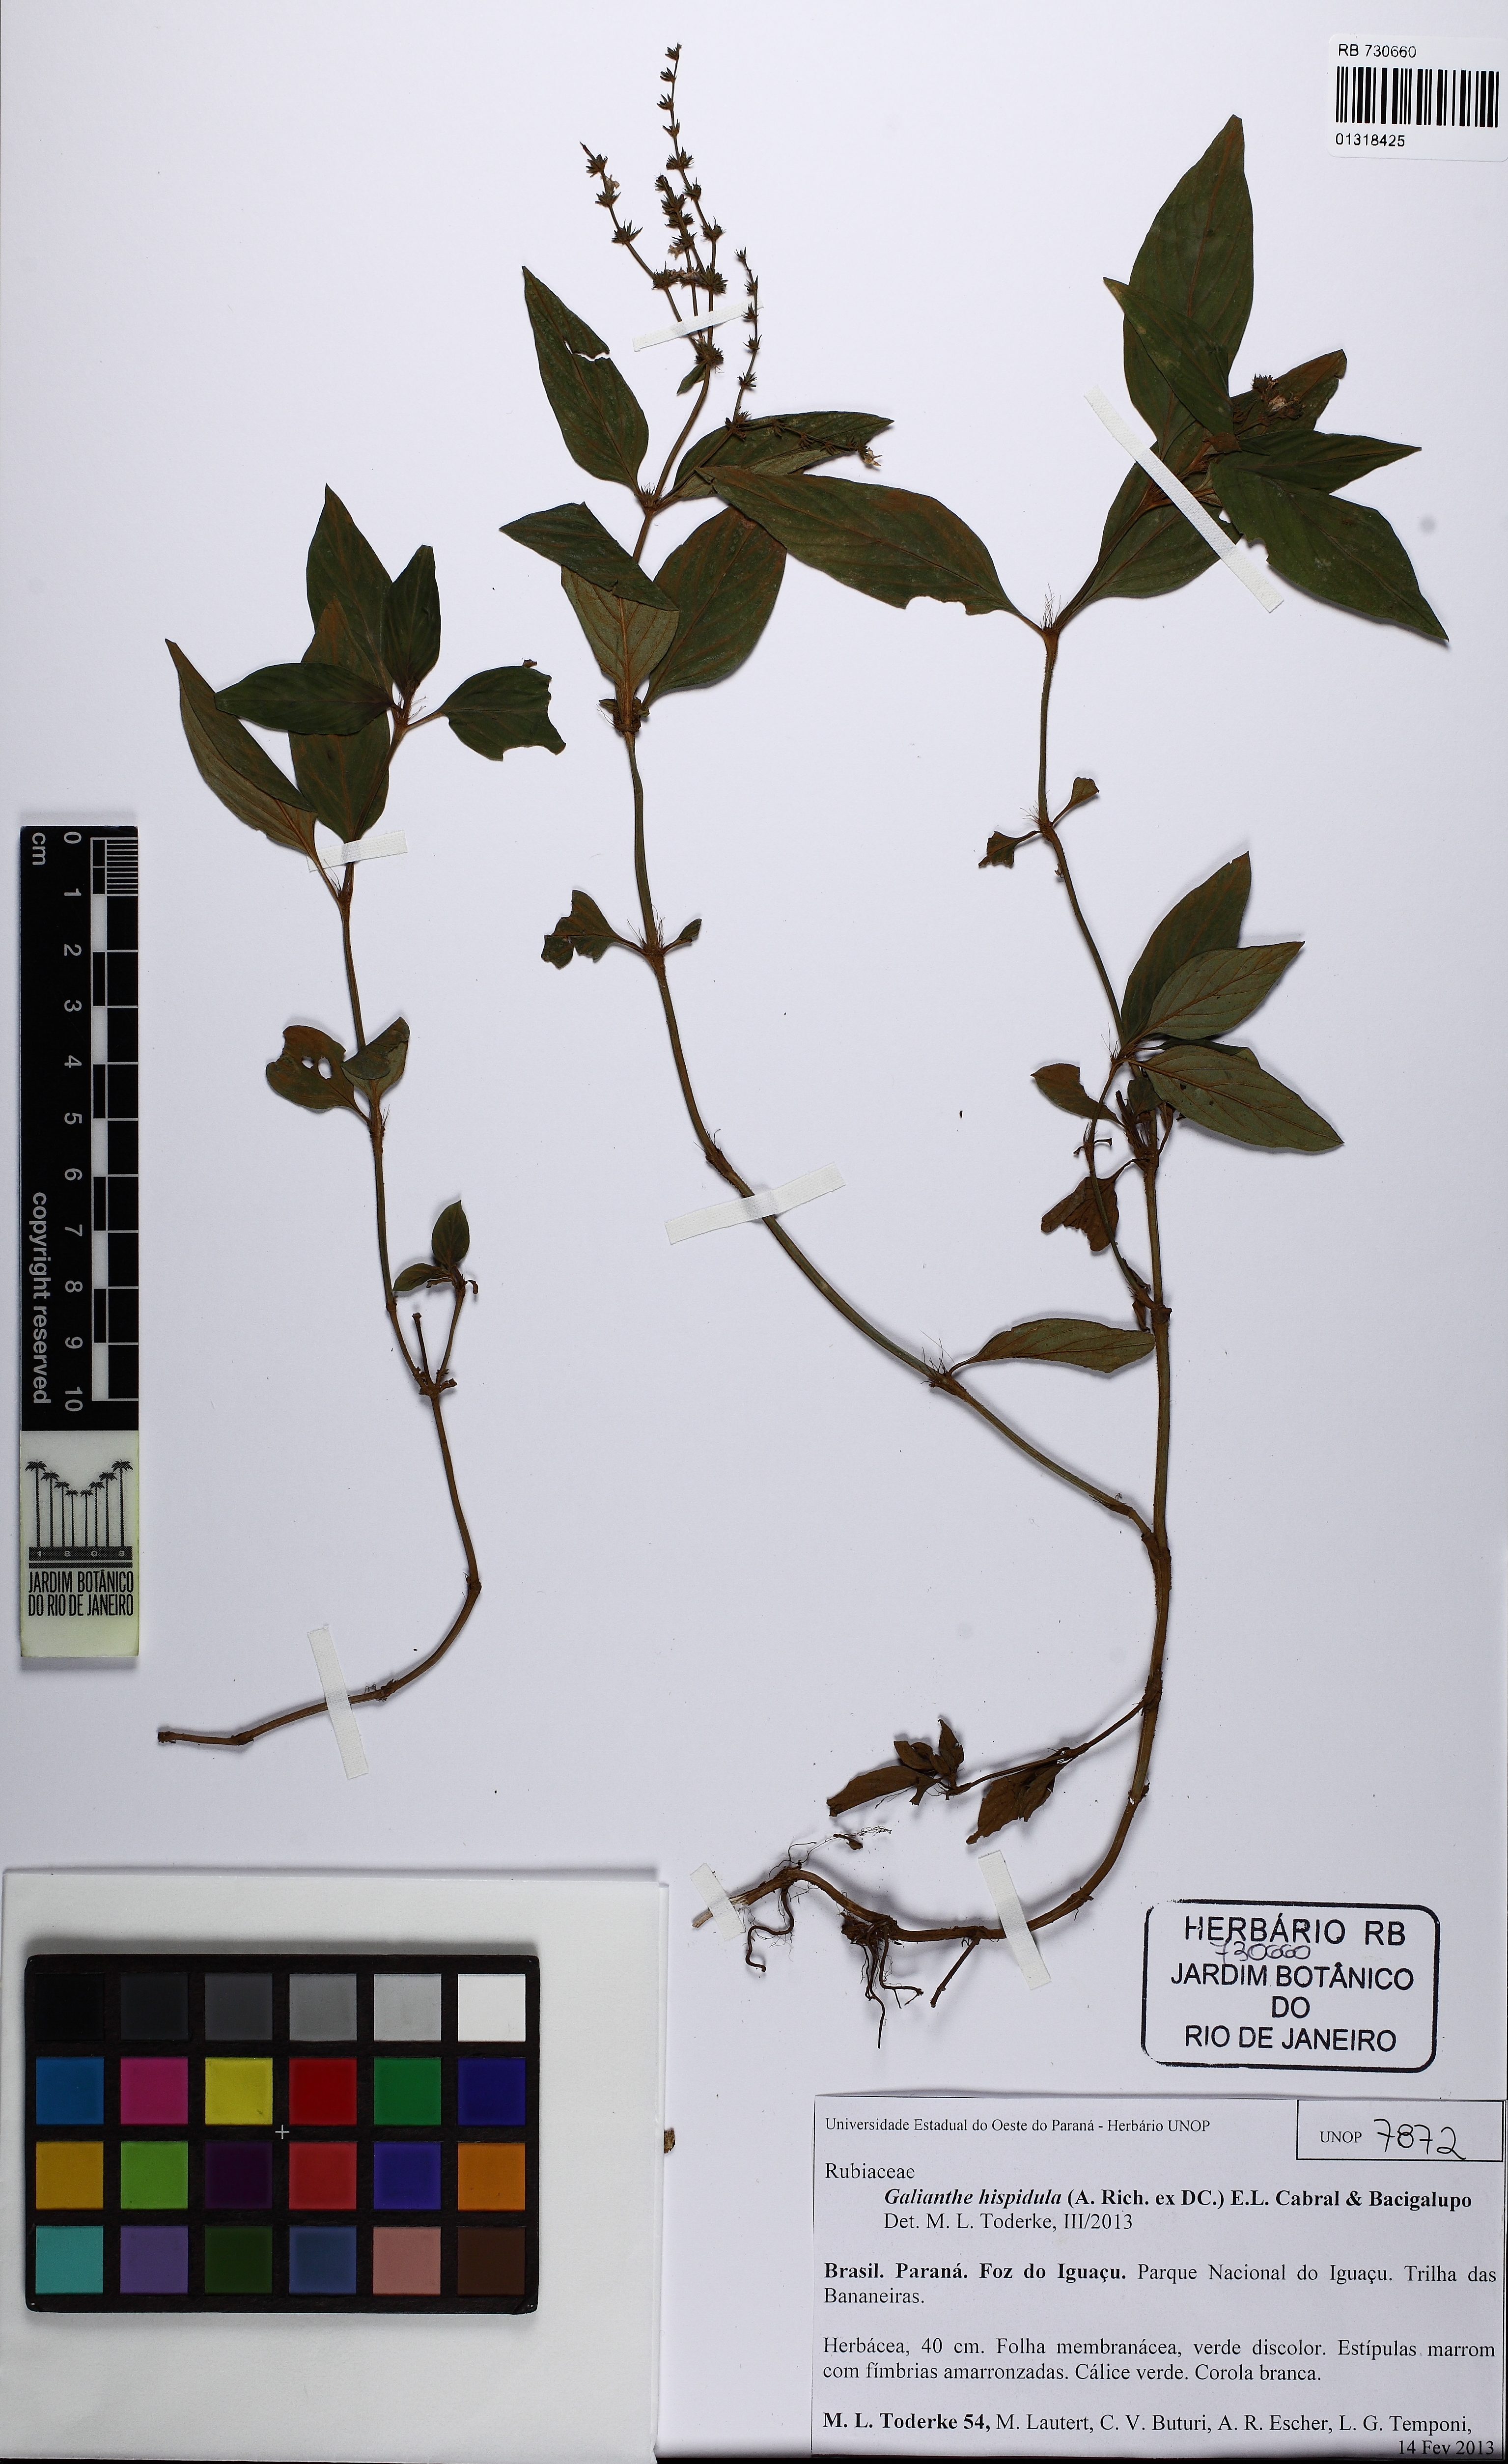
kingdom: Plantae
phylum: Tracheophyta
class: Magnoliopsida
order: Gentianales
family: Rubiaceae
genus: Galianthe
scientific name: Galianthe hispidula
